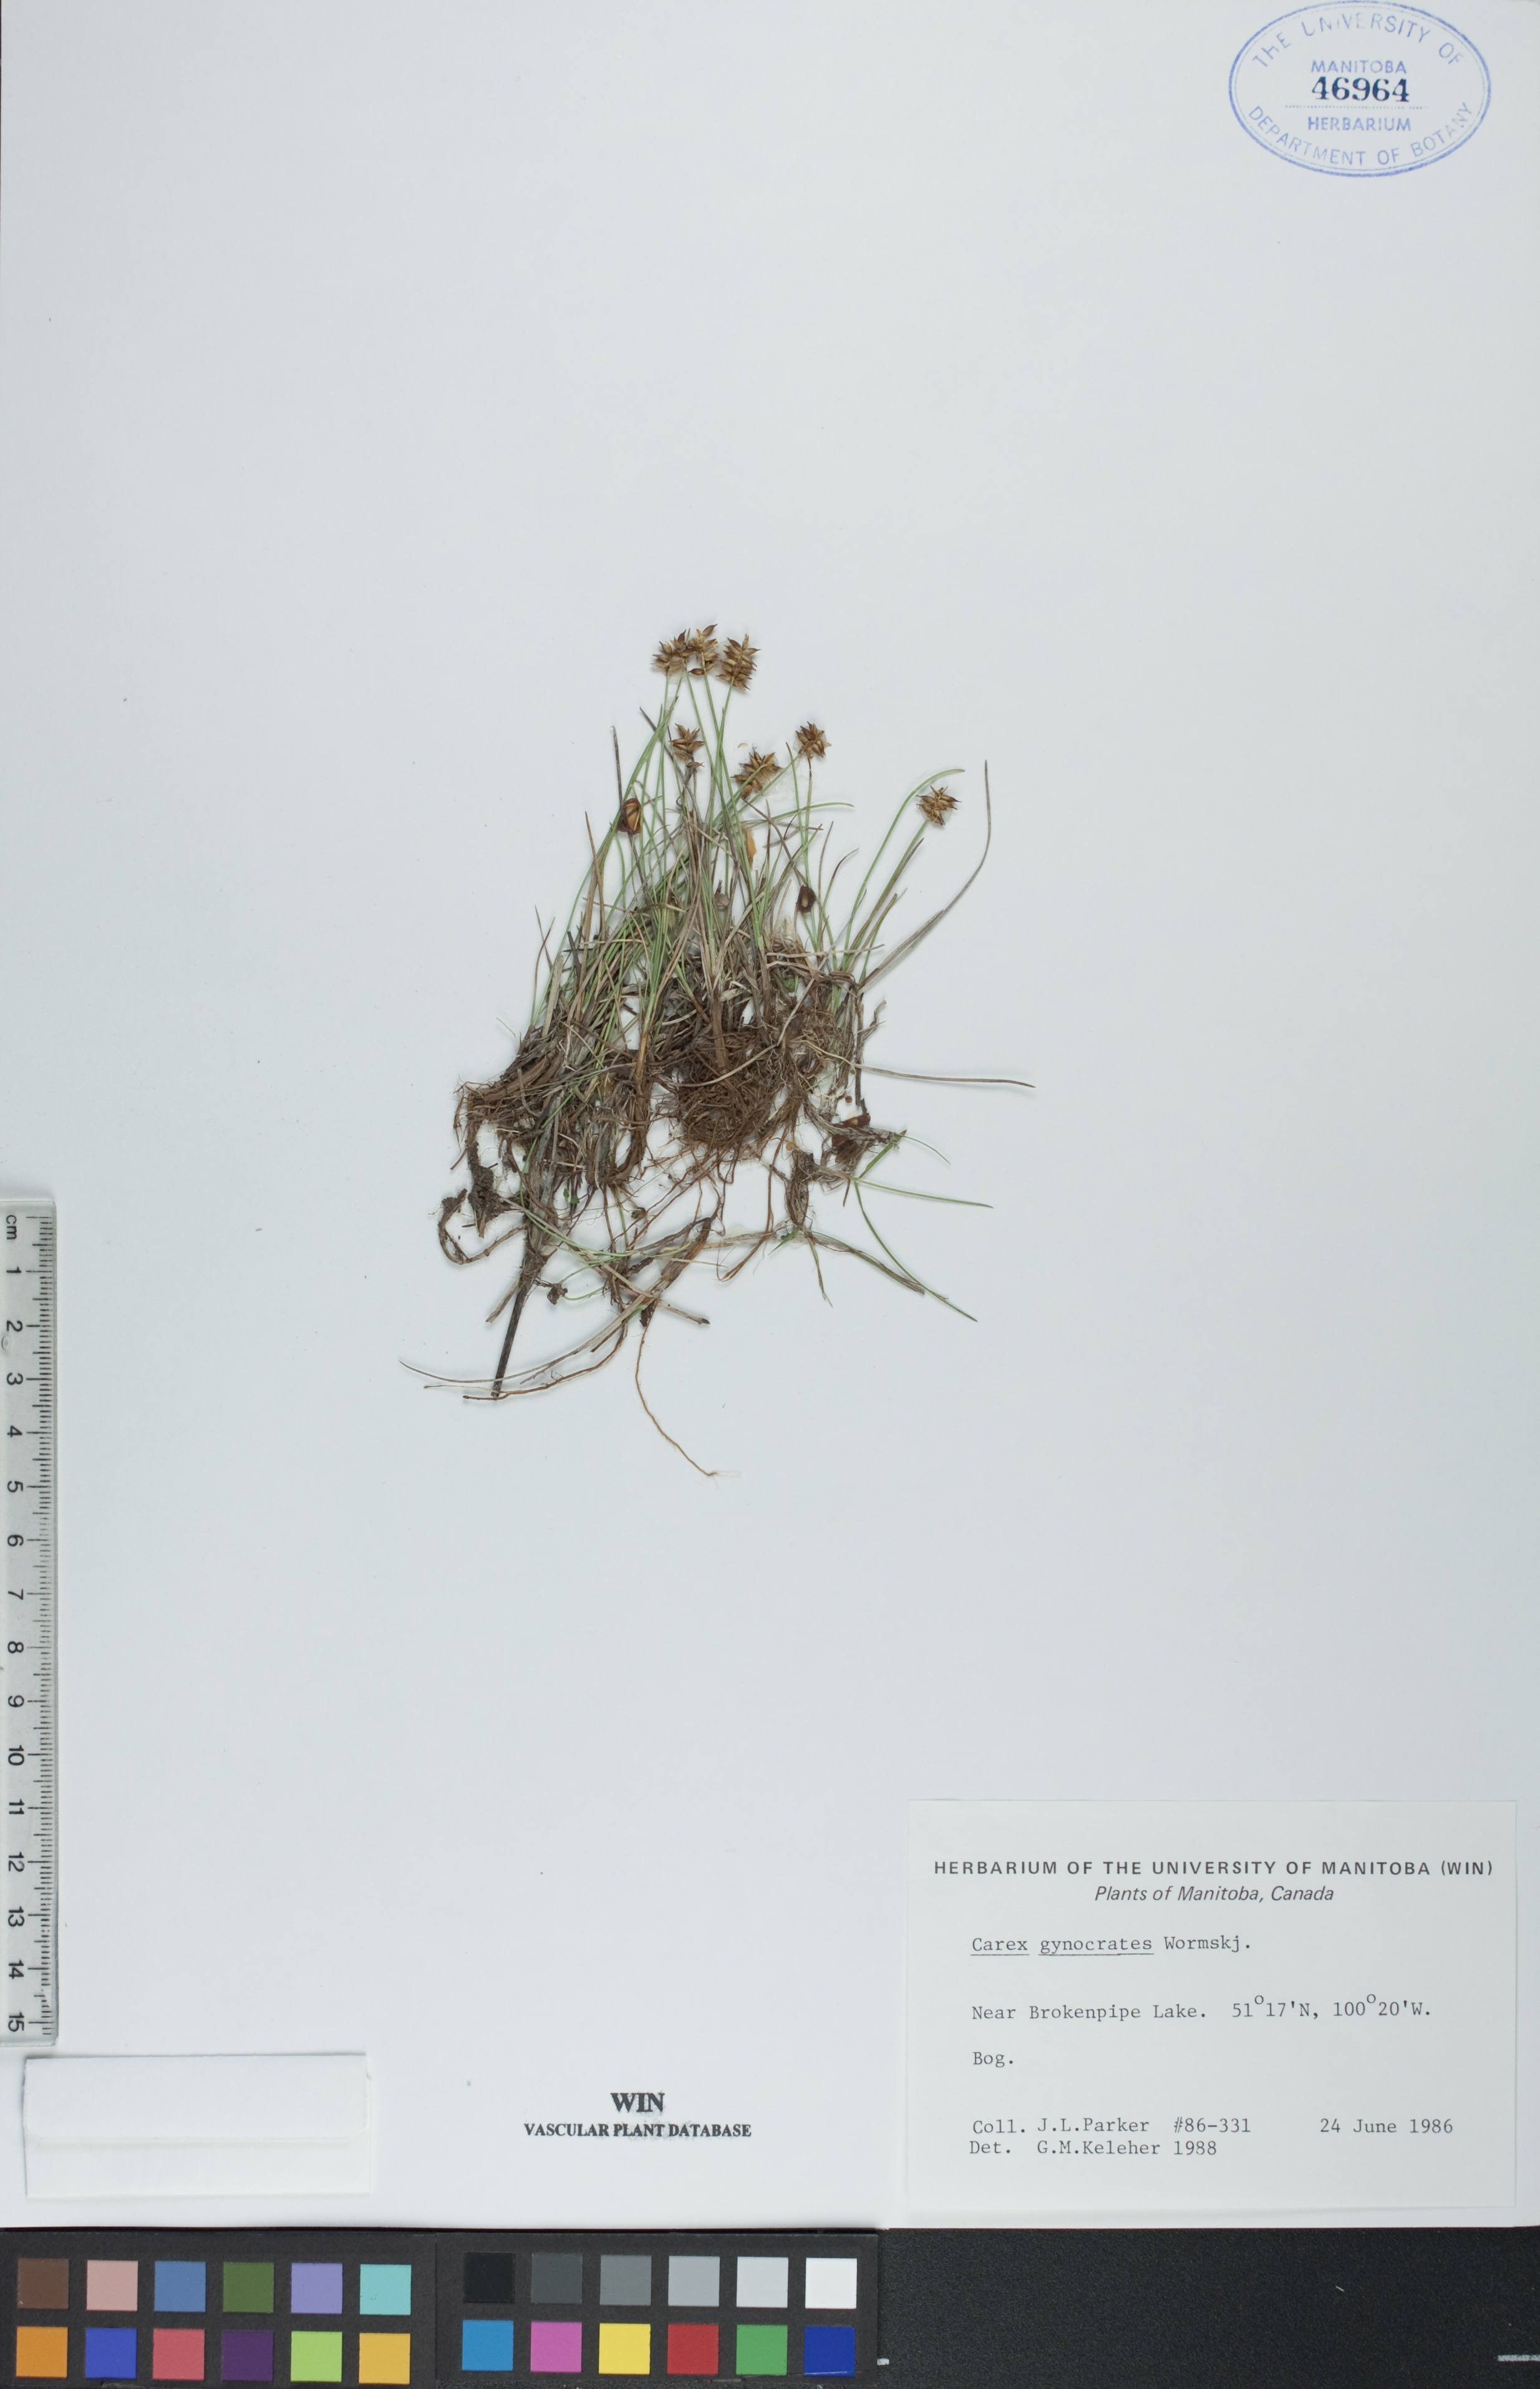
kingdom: Plantae
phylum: Tracheophyta
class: Liliopsida
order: Poales
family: Cyperaceae
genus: Carex
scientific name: Carex nardina
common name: Nard sedge
